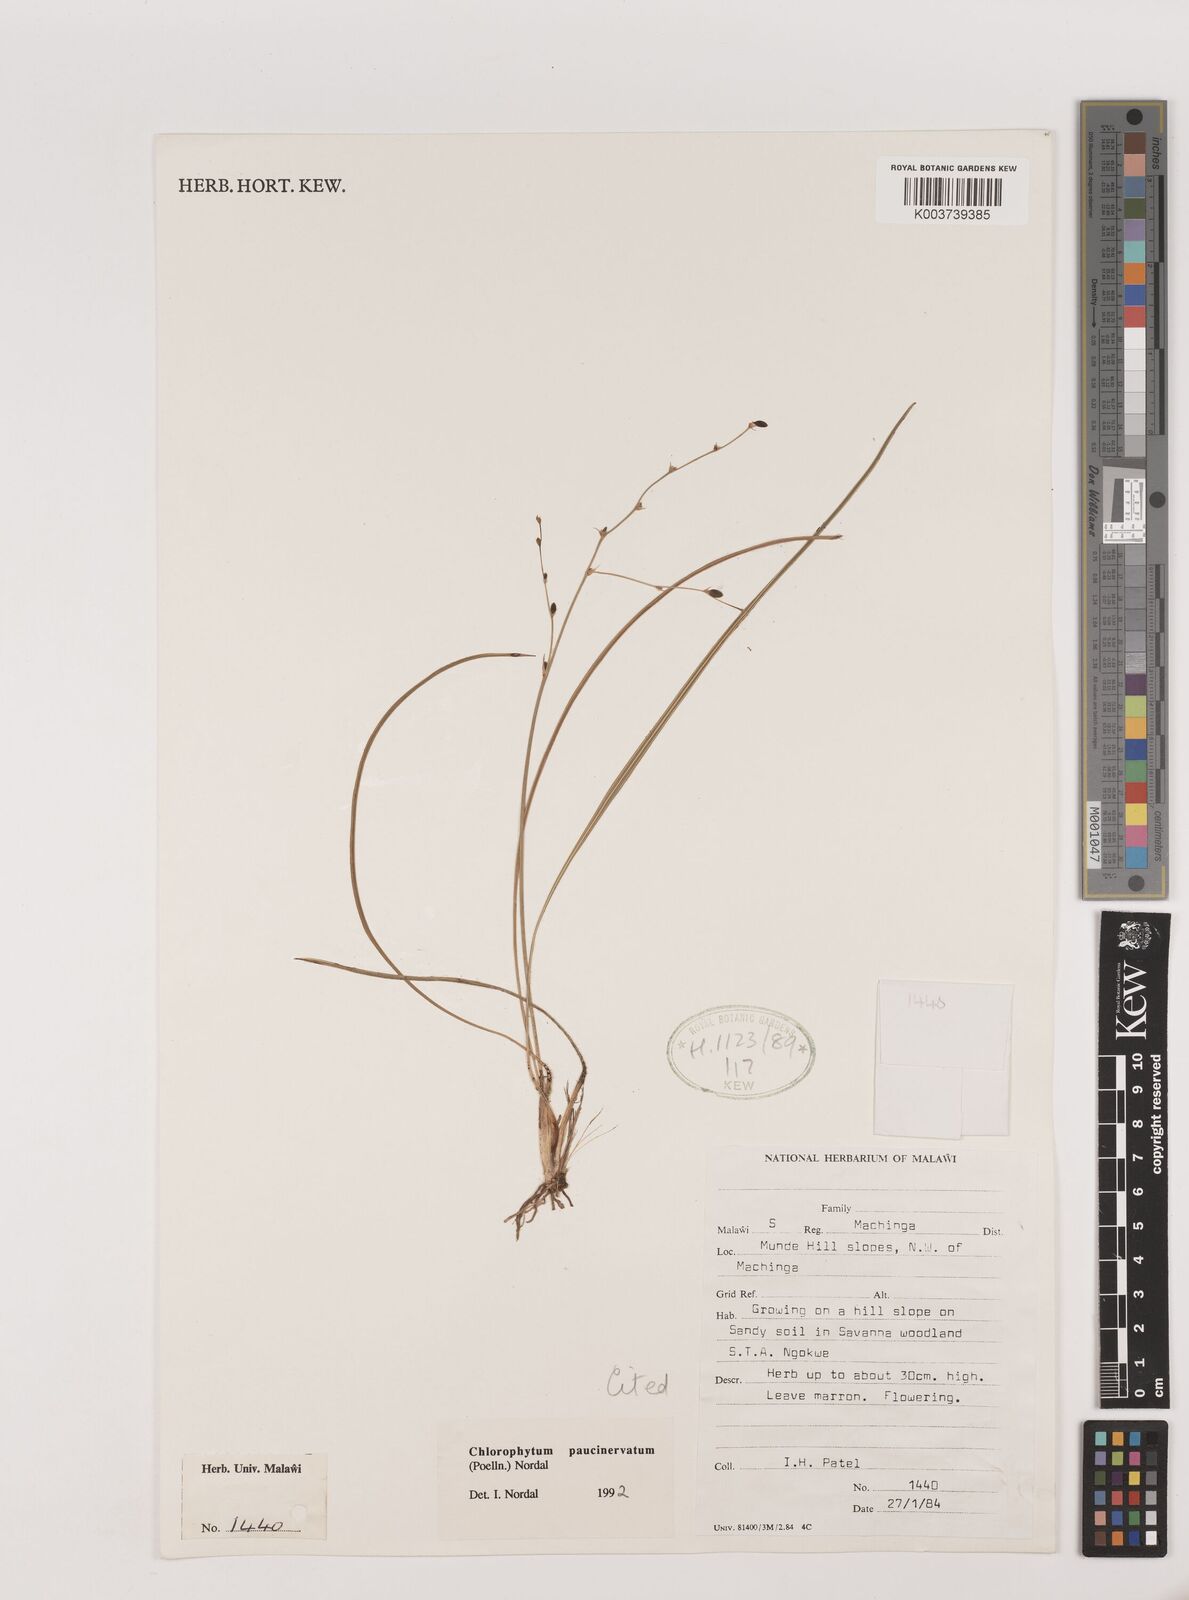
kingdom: Plantae
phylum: Tracheophyta
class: Liliopsida
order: Asparagales
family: Asparagaceae
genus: Chlorophytum
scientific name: Chlorophytum paucinervatum
